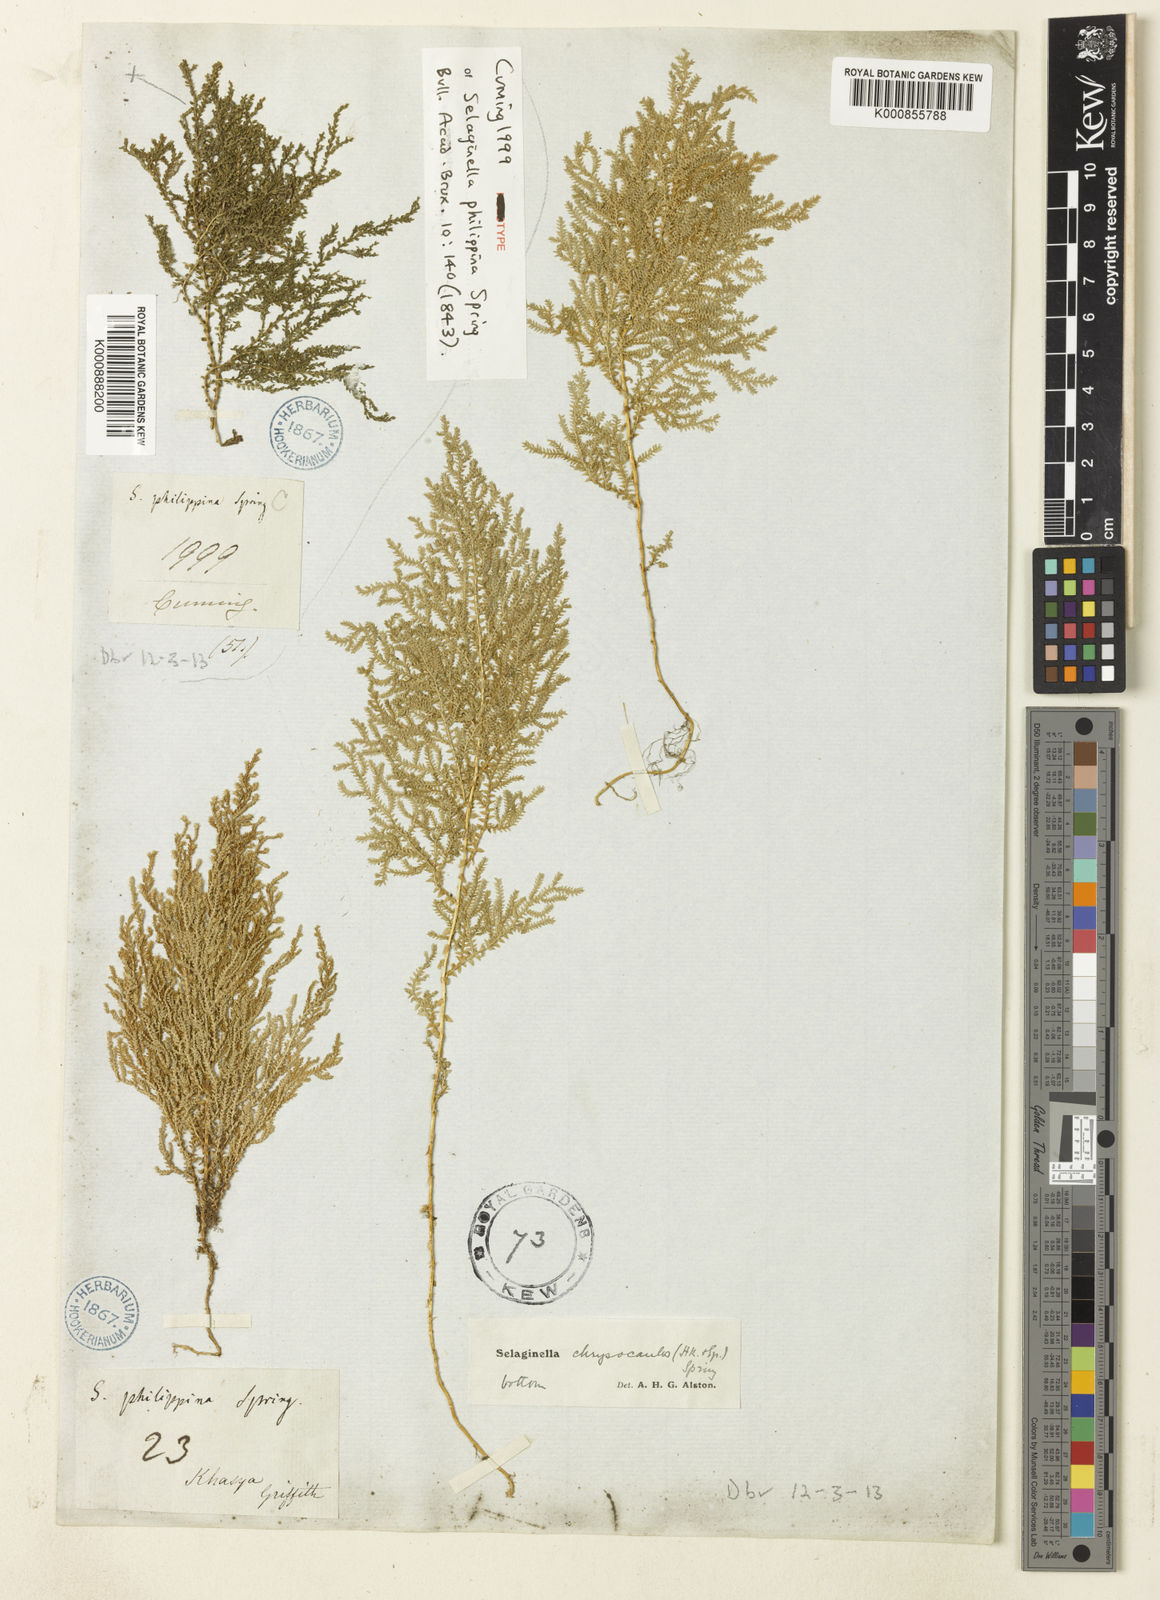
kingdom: Plantae
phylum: Tracheophyta
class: Lycopodiopsida
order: Selaginellales
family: Selaginellaceae
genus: Selaginella
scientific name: Selaginella
